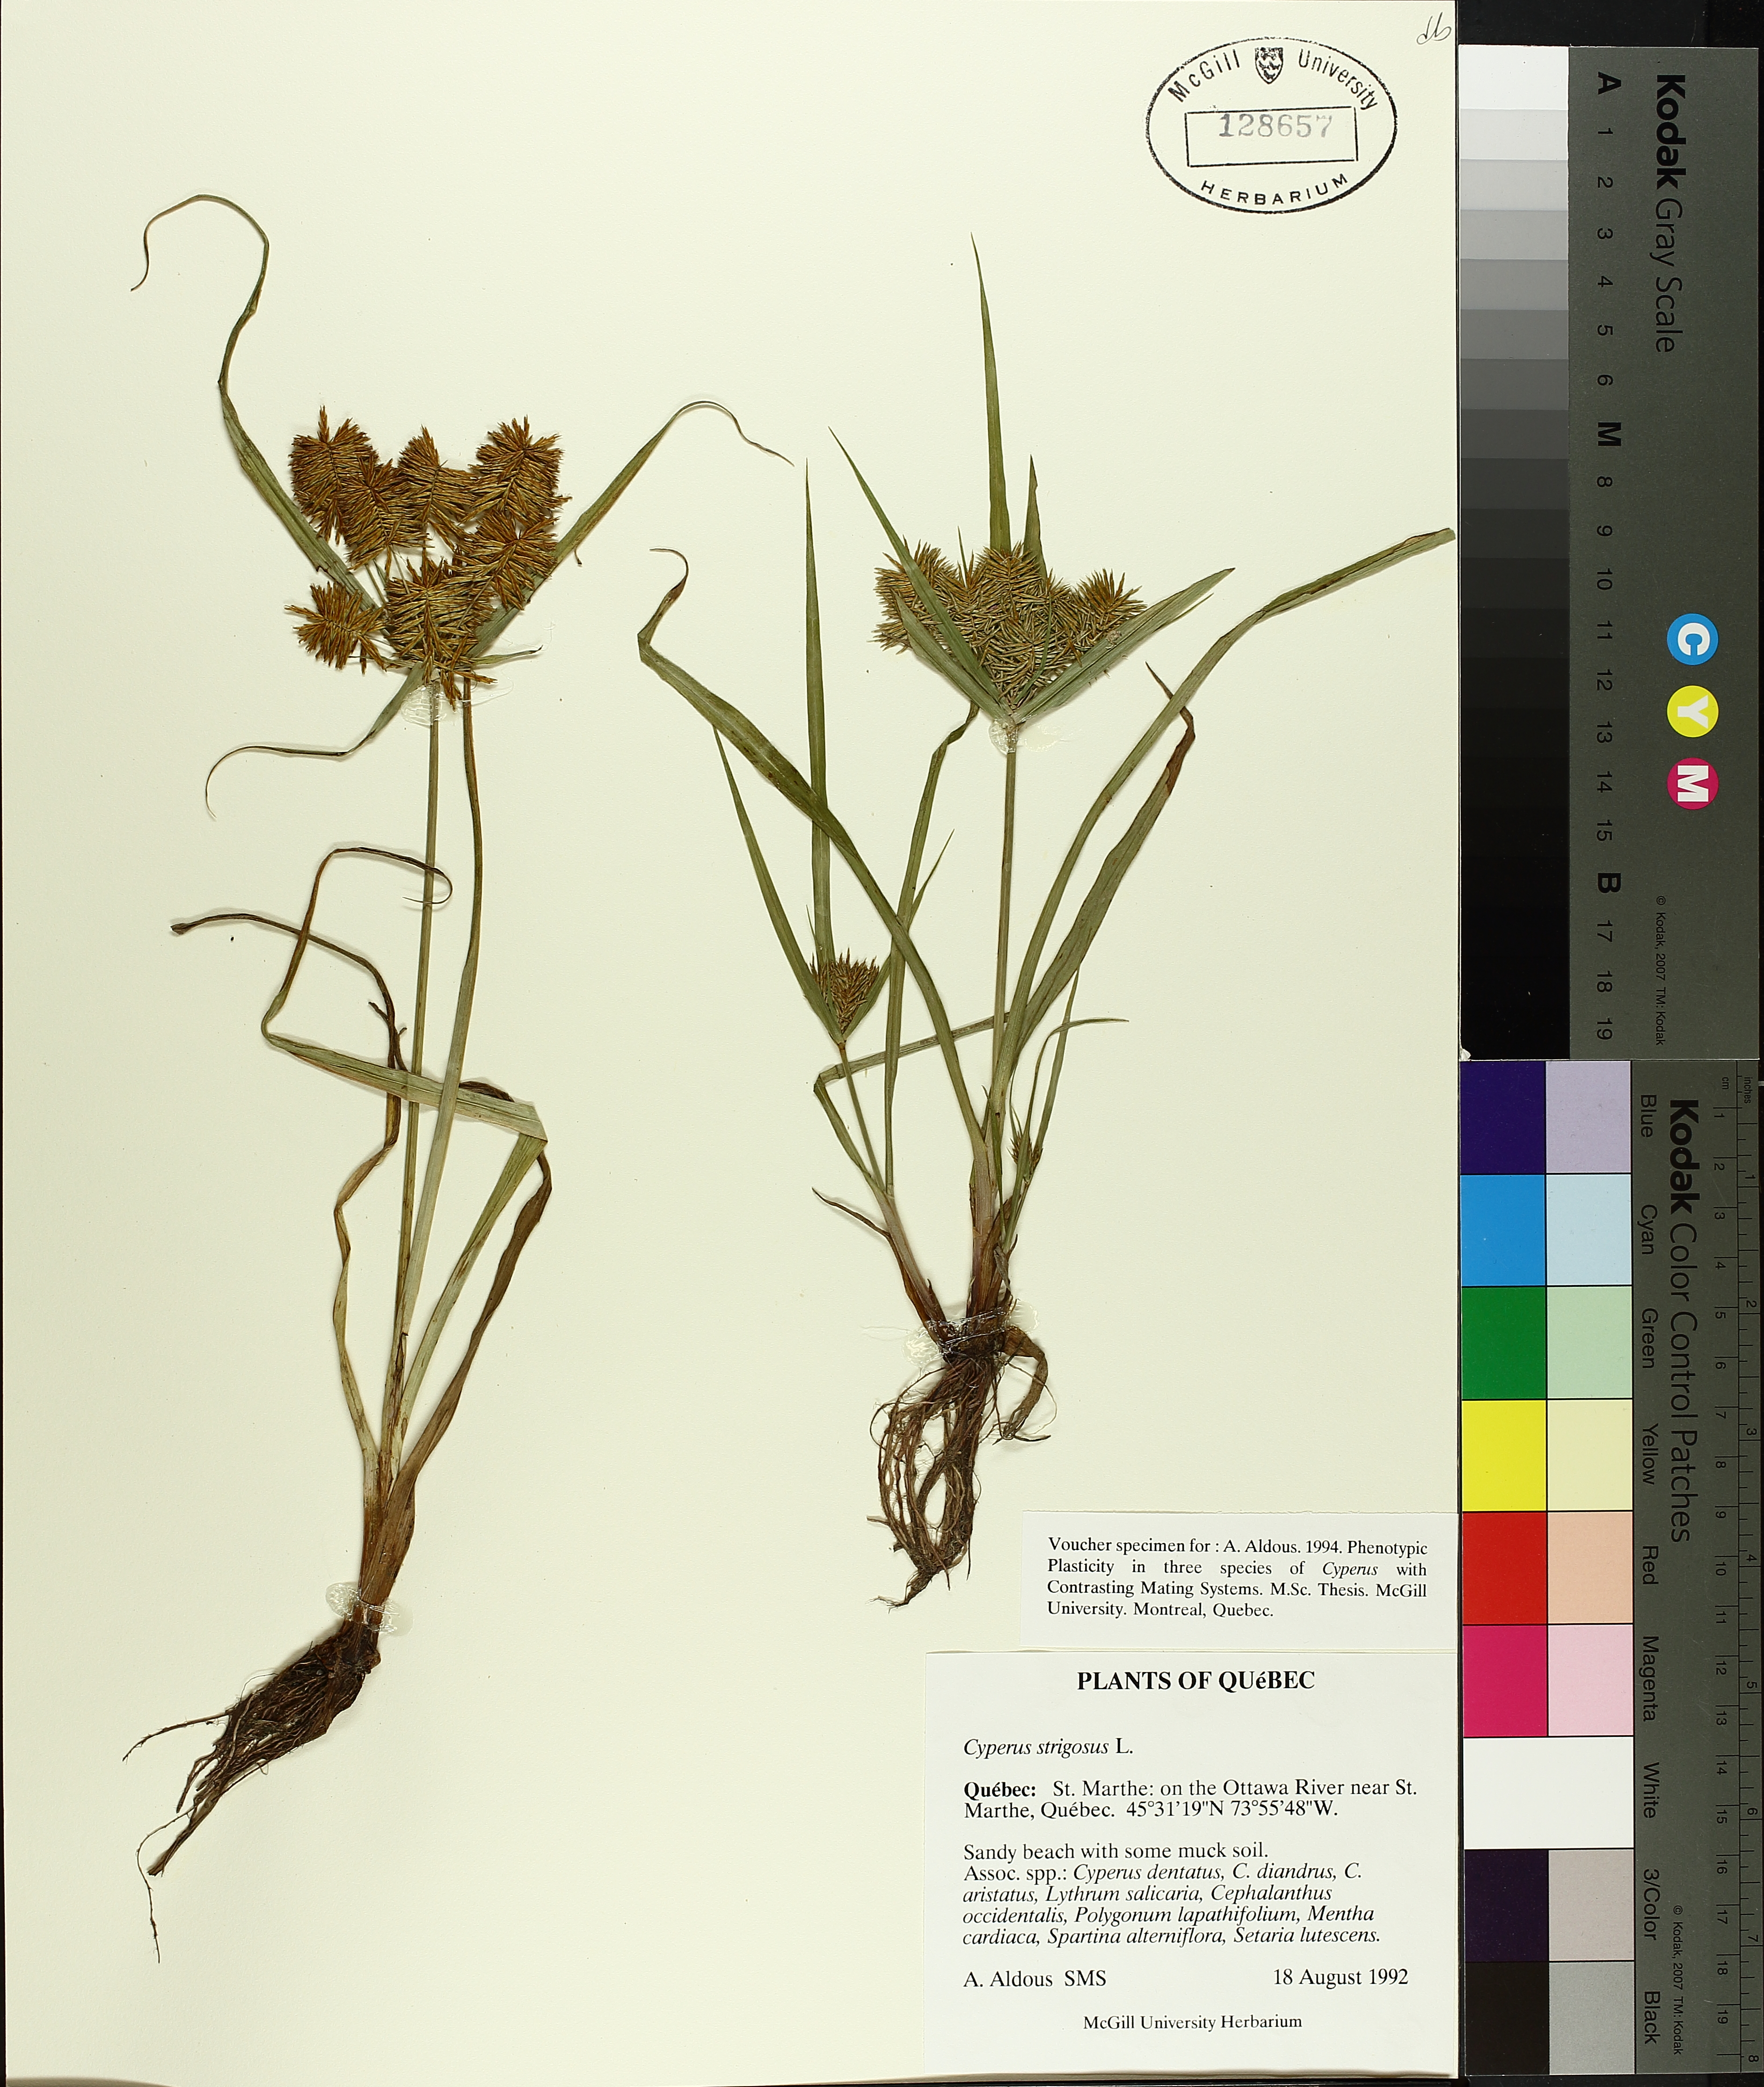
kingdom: Plantae
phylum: Tracheophyta
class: Liliopsida
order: Poales
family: Cyperaceae
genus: Cyperus
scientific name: Cyperus strigosus
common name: False nutsedge
